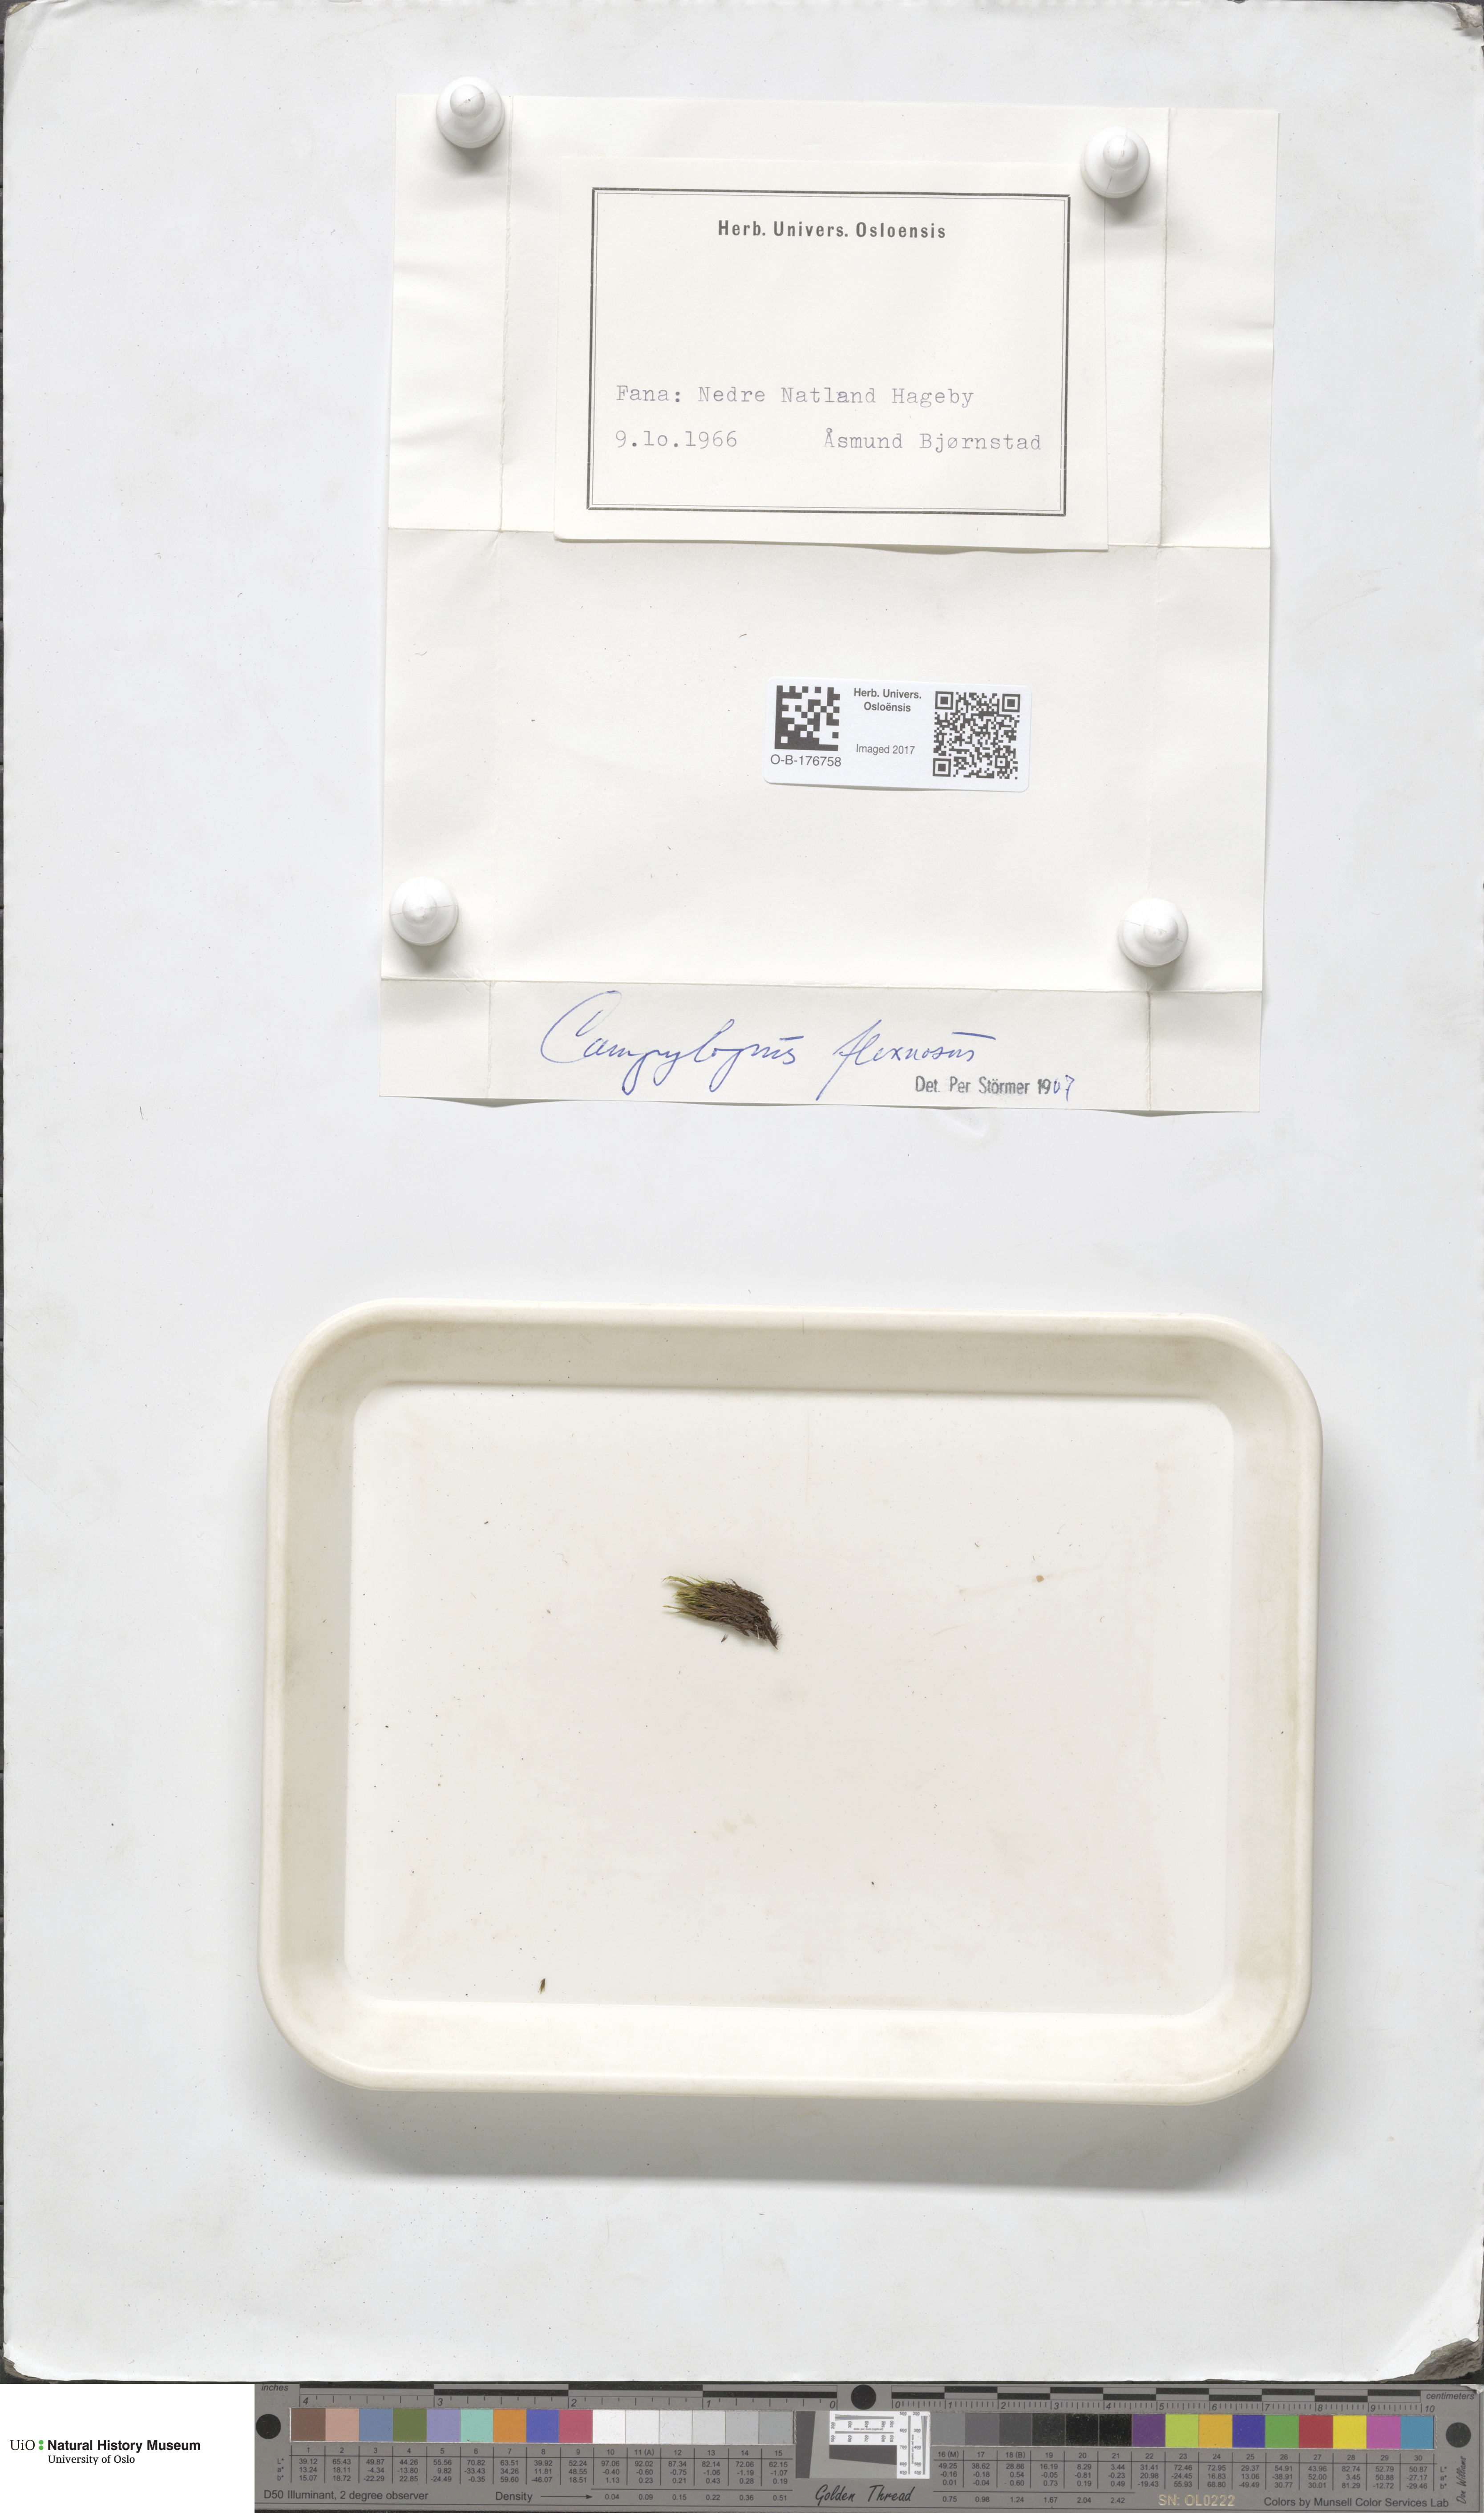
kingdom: Plantae
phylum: Bryophyta
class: Bryopsida
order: Dicranales
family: Leucobryaceae
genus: Campylopus
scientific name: Campylopus flexuosus
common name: Rusty swan-neck moss
